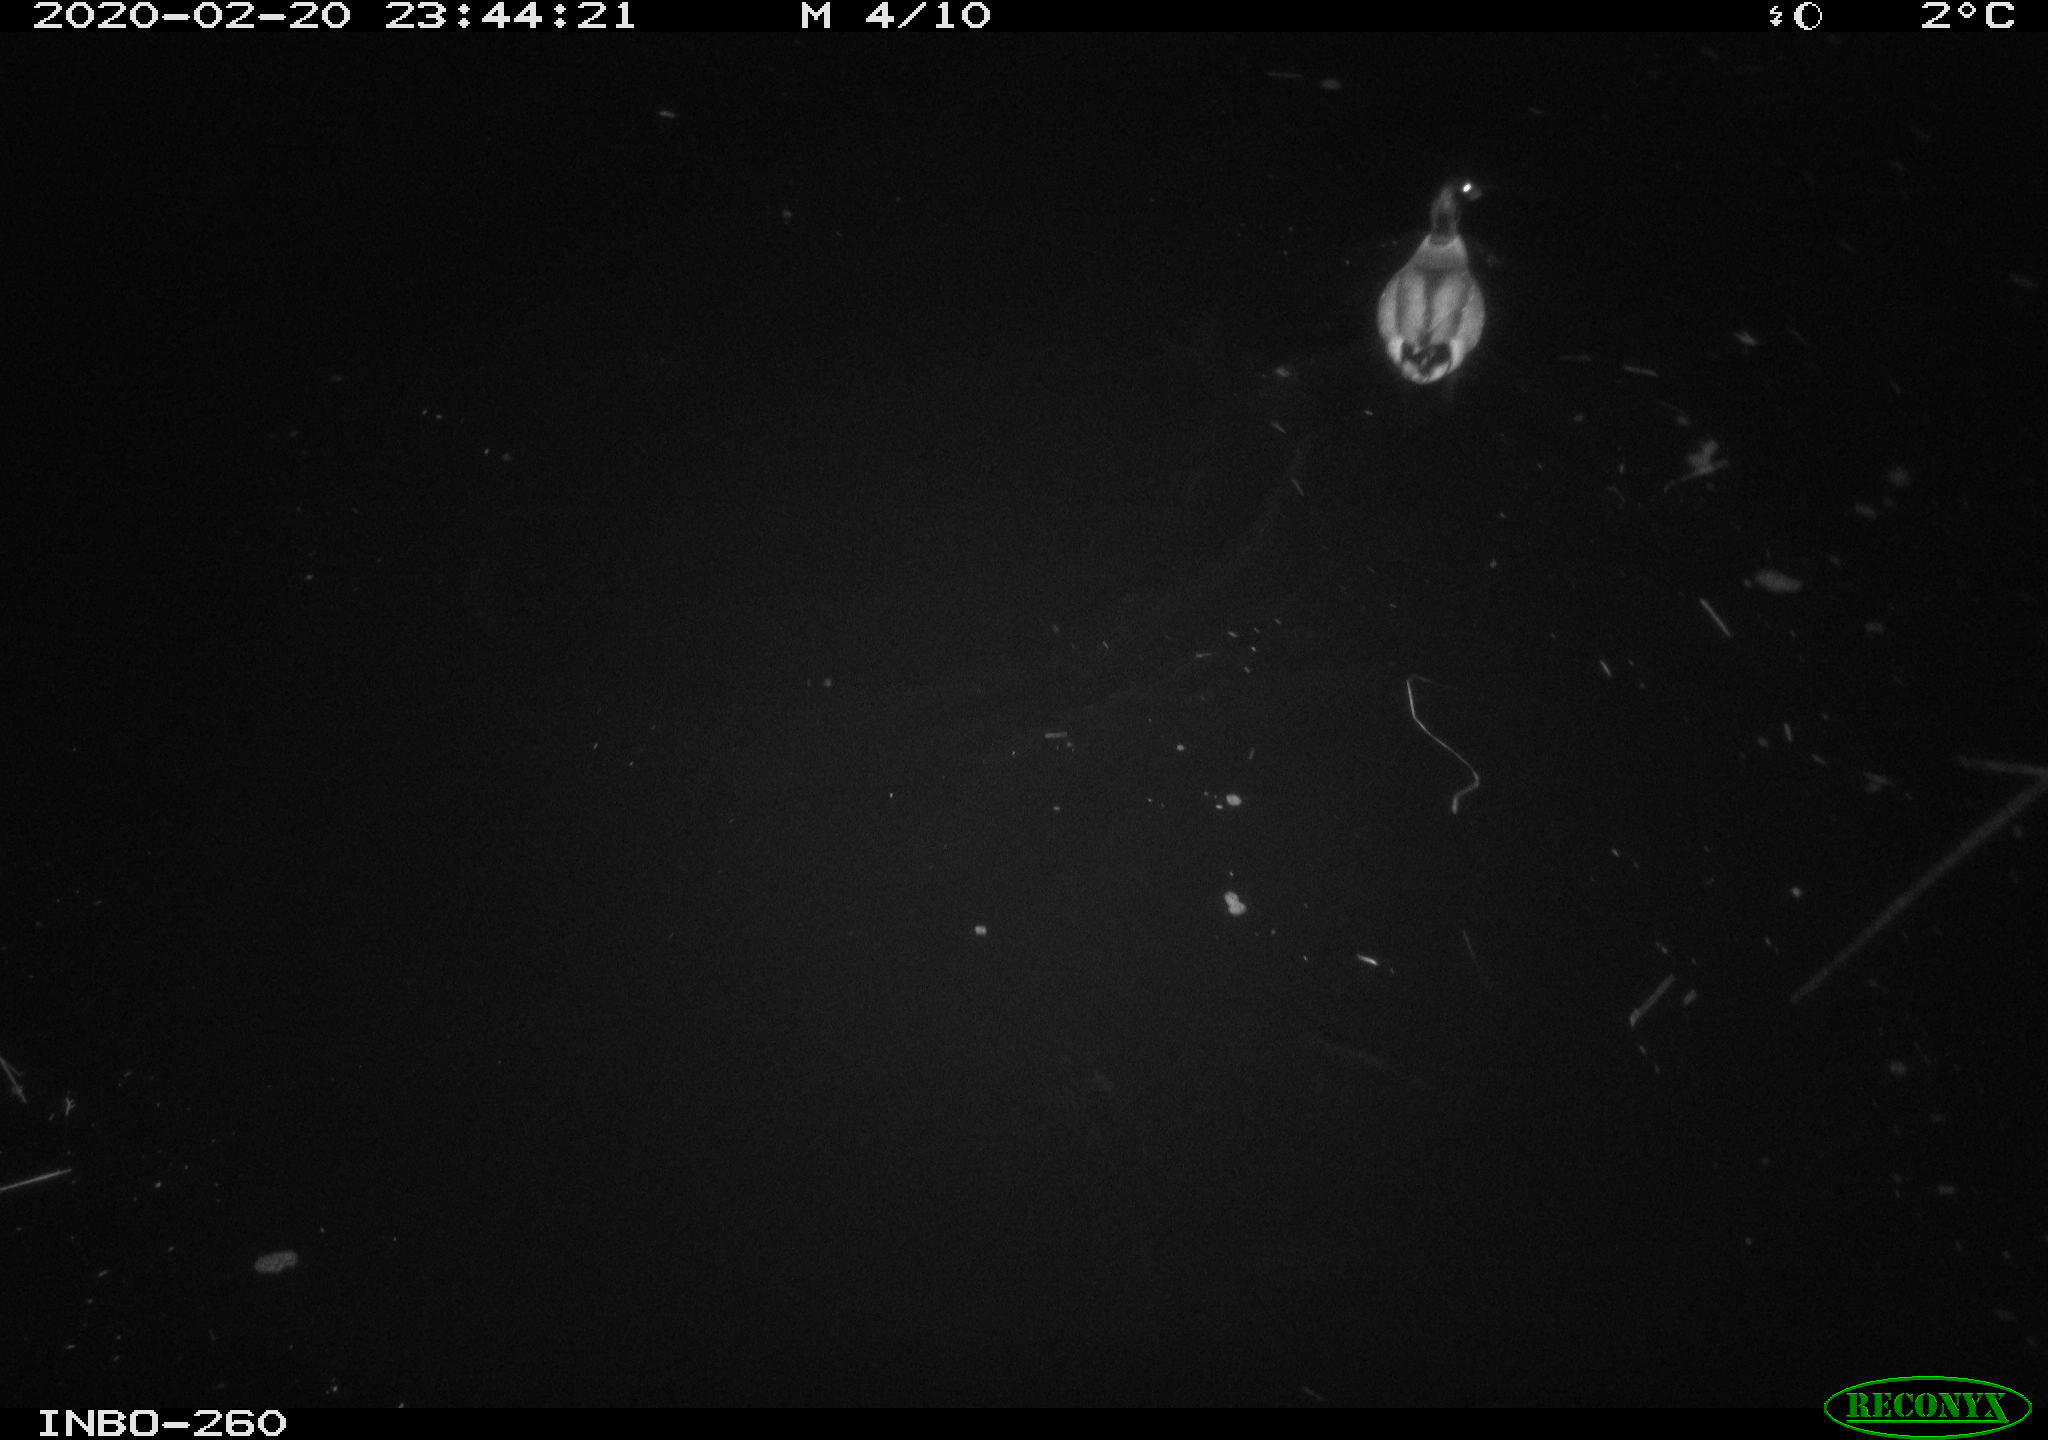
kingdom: Animalia
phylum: Chordata
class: Aves
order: Anseriformes
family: Anatidae
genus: Anas
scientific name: Anas platyrhynchos
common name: Mallard
